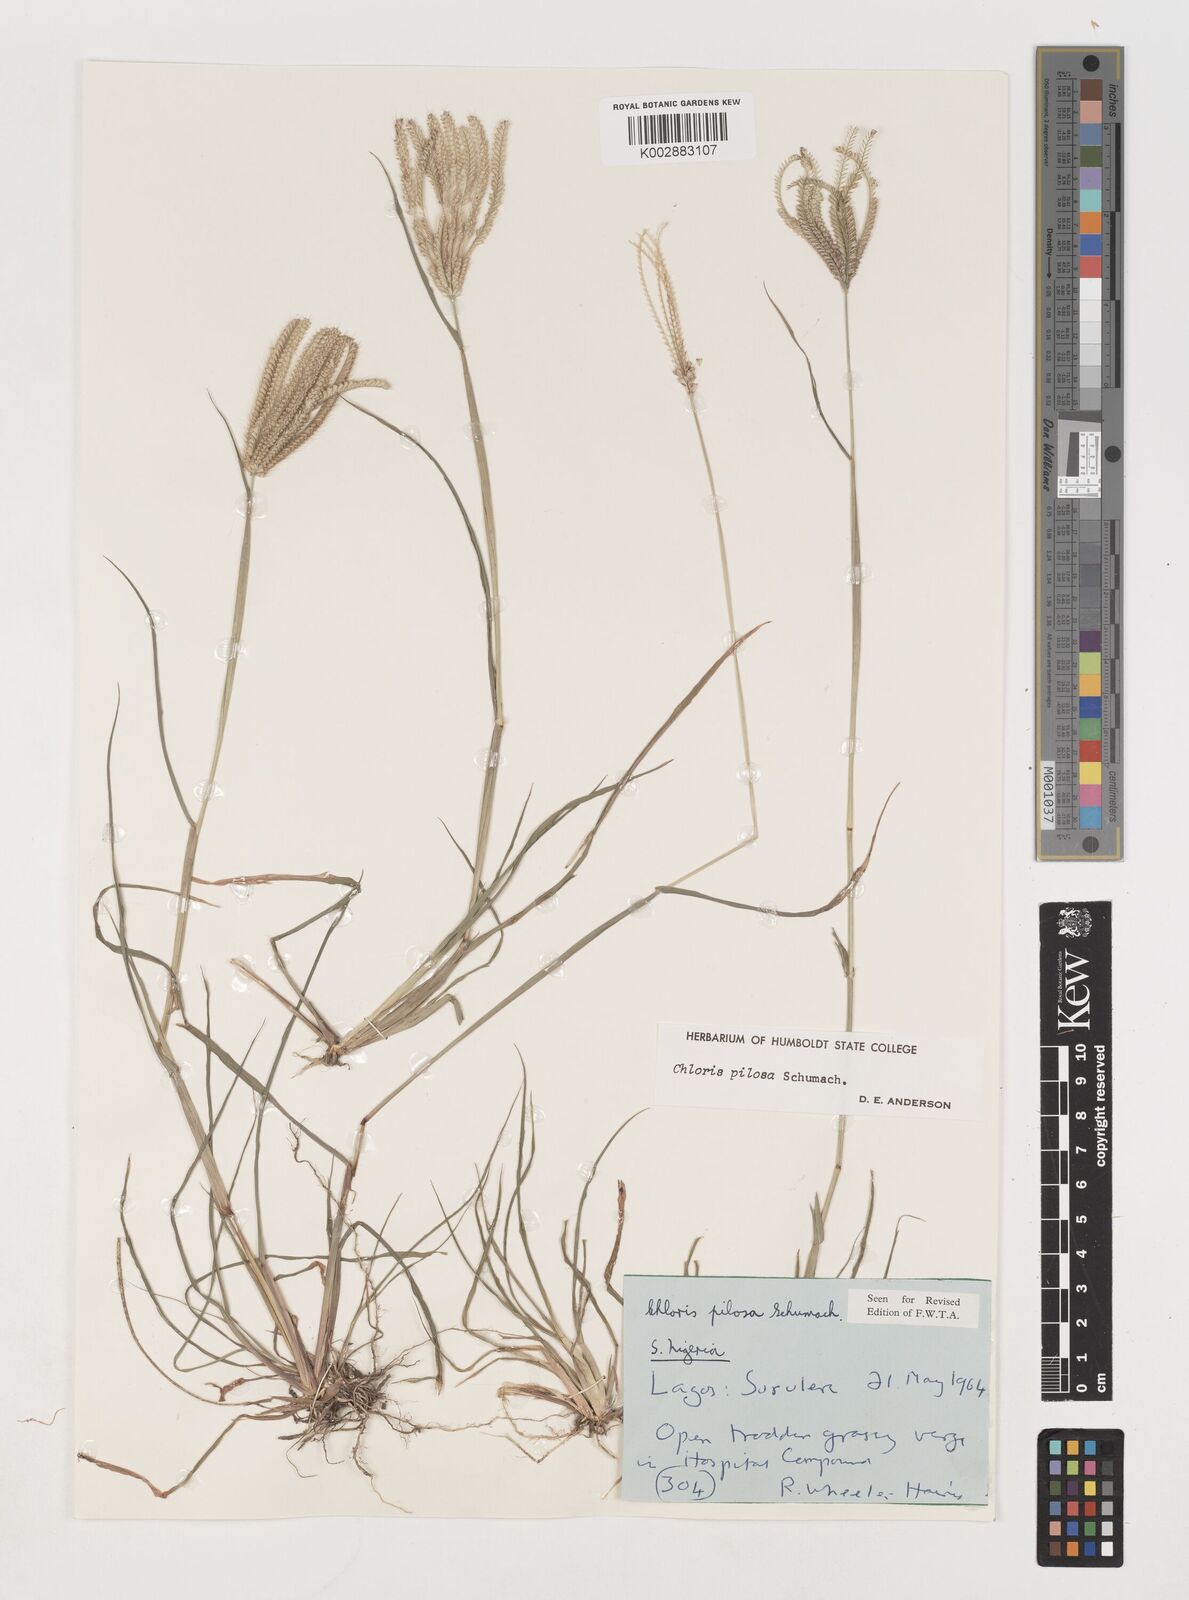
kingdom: Plantae
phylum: Tracheophyta
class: Liliopsida
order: Poales
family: Poaceae
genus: Chloris
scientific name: Chloris pilosa
